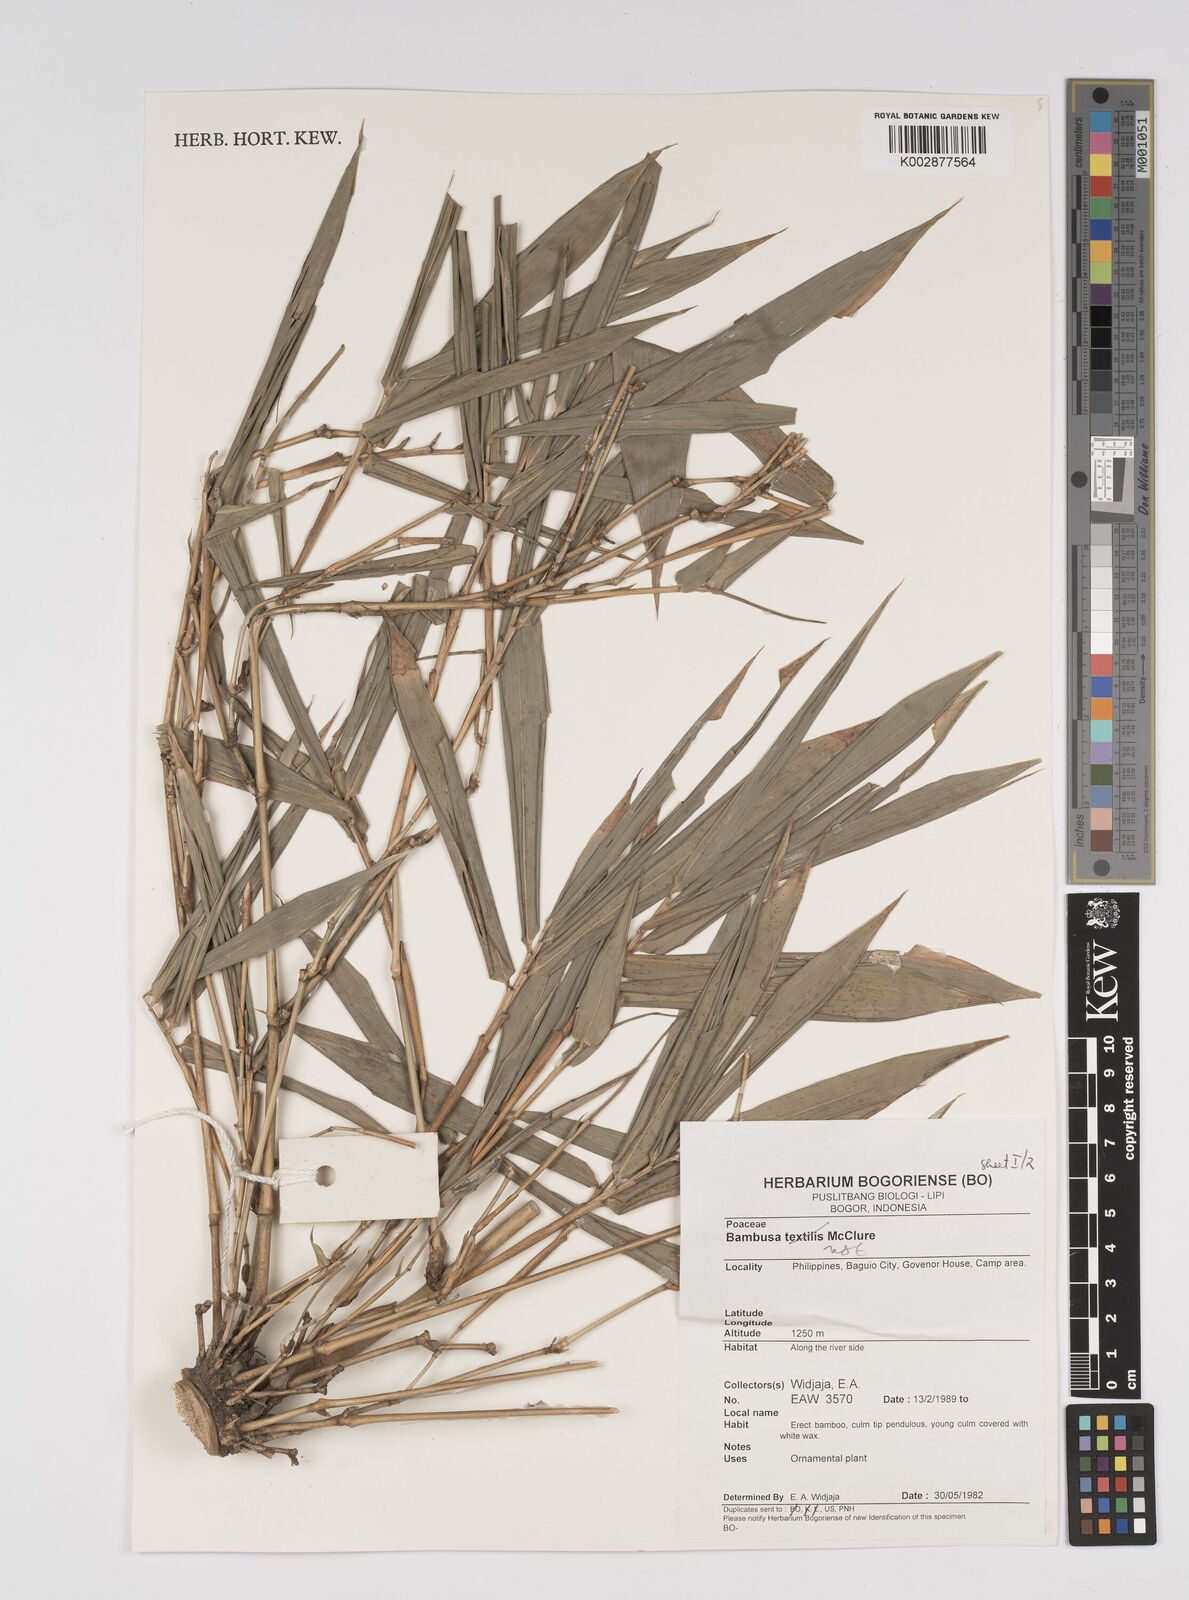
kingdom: Plantae
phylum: Tracheophyta
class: Liliopsida
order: Poales
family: Poaceae
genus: Bambusa
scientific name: Bambusa
